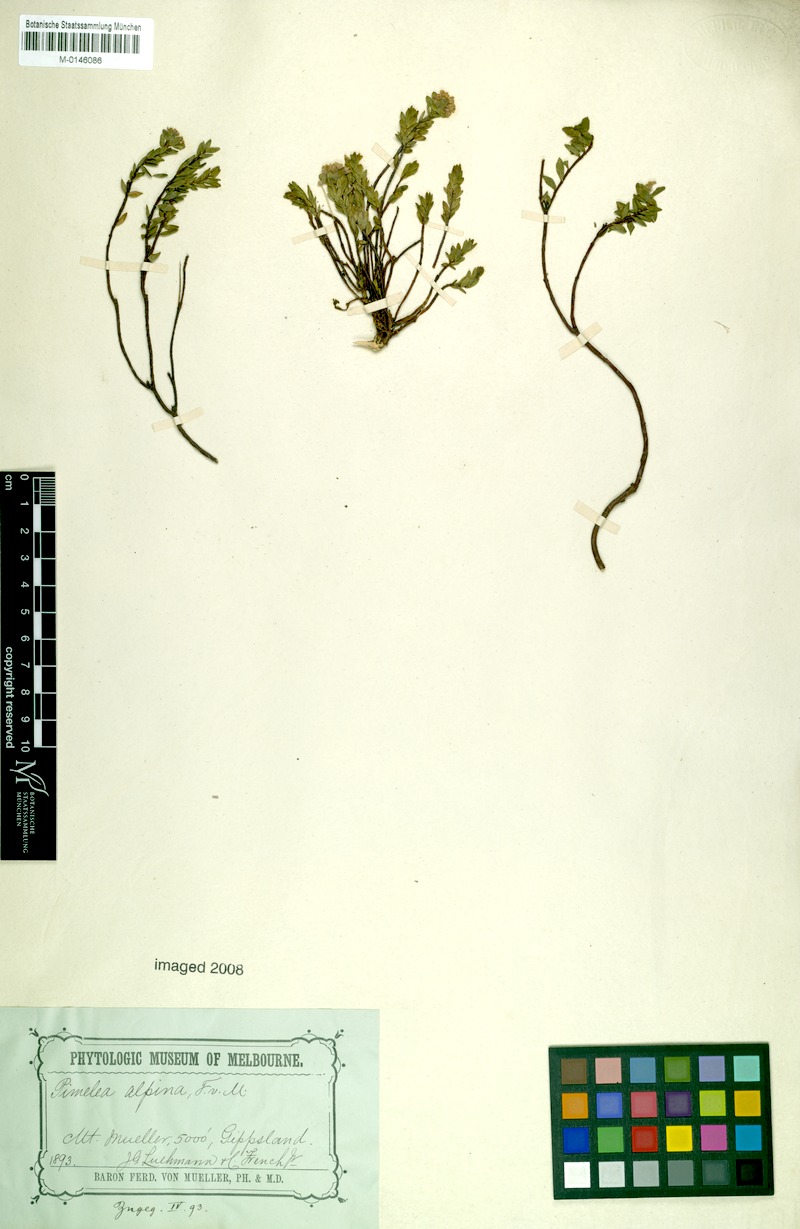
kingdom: Plantae
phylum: Tracheophyta
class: Magnoliopsida
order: Malvales
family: Thymelaeaceae
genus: Pimelea
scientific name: Pimelea alpina
